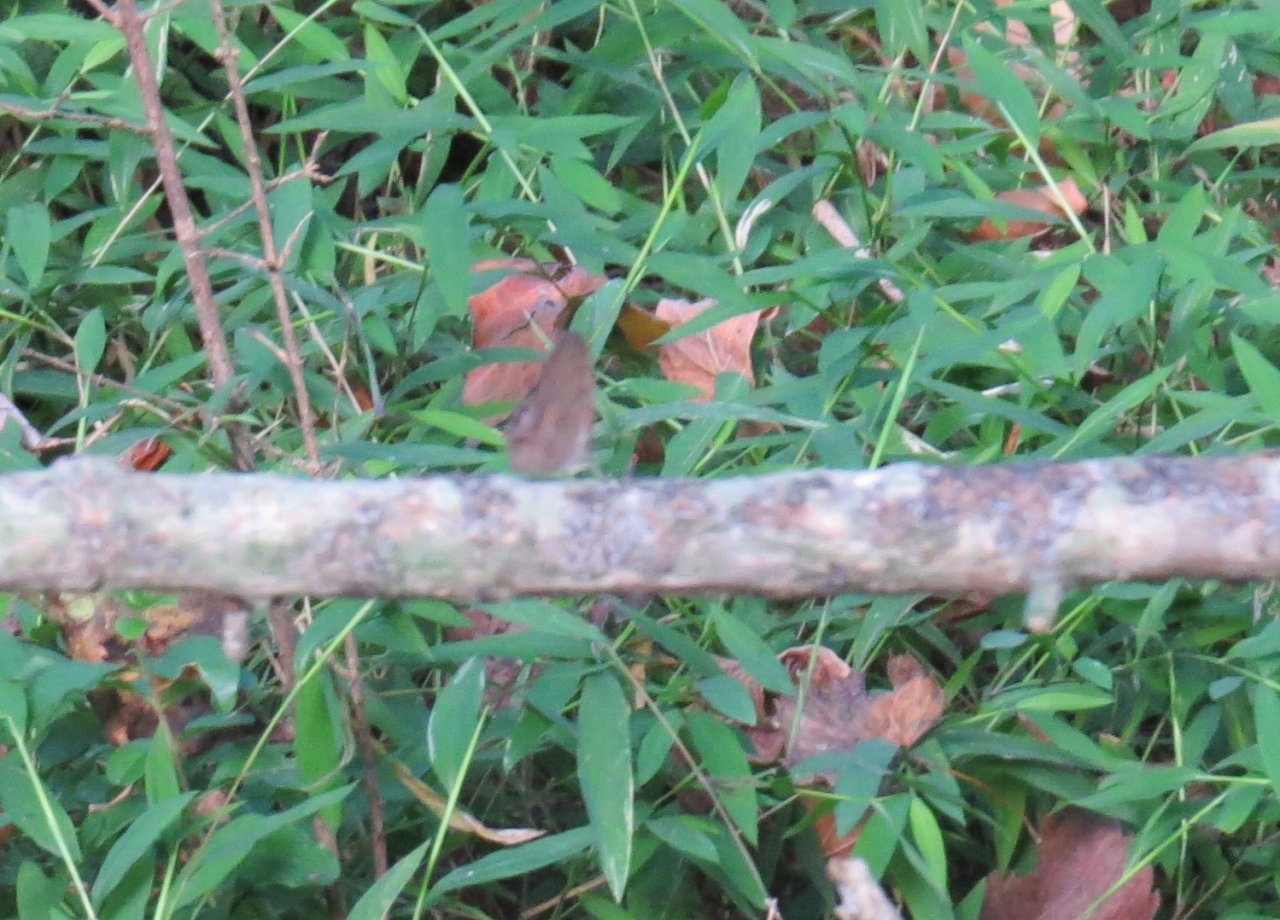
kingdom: Animalia
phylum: Arthropoda
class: Insecta
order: Lepidoptera
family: Nymphalidae
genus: Euptychia
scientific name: Euptychia cornelius
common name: Gemmed Satyr
